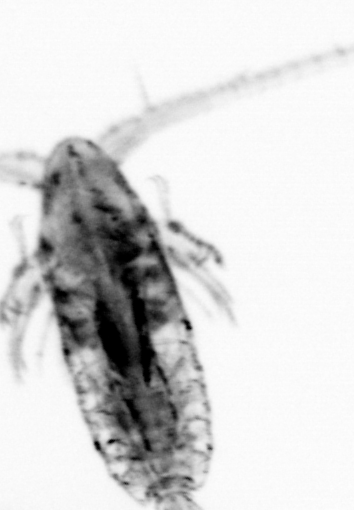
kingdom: Animalia
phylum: Arthropoda
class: Copepoda
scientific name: Copepoda
